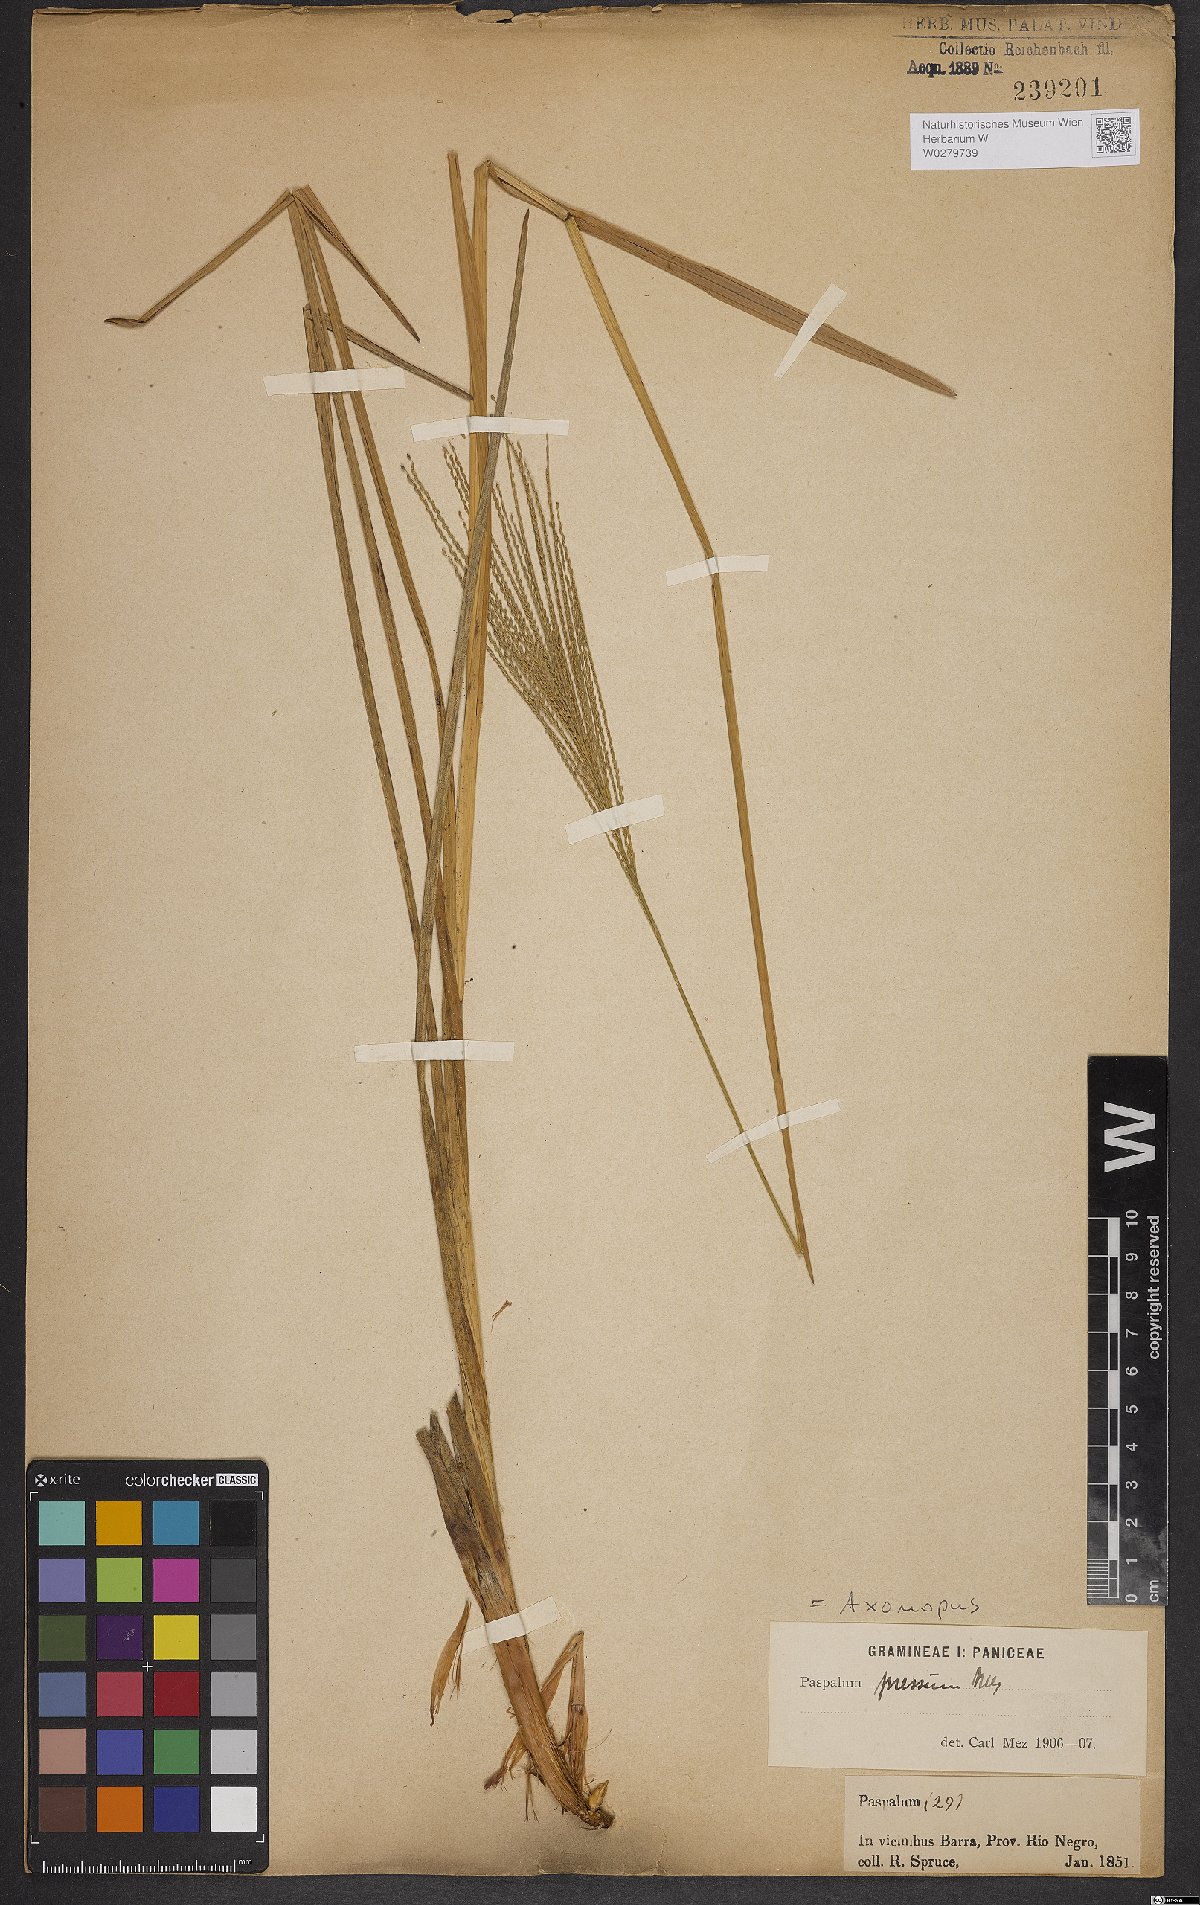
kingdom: Plantae
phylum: Tracheophyta
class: Liliopsida
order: Poales
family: Poaceae
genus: Axonopus
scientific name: Axonopus pressus
